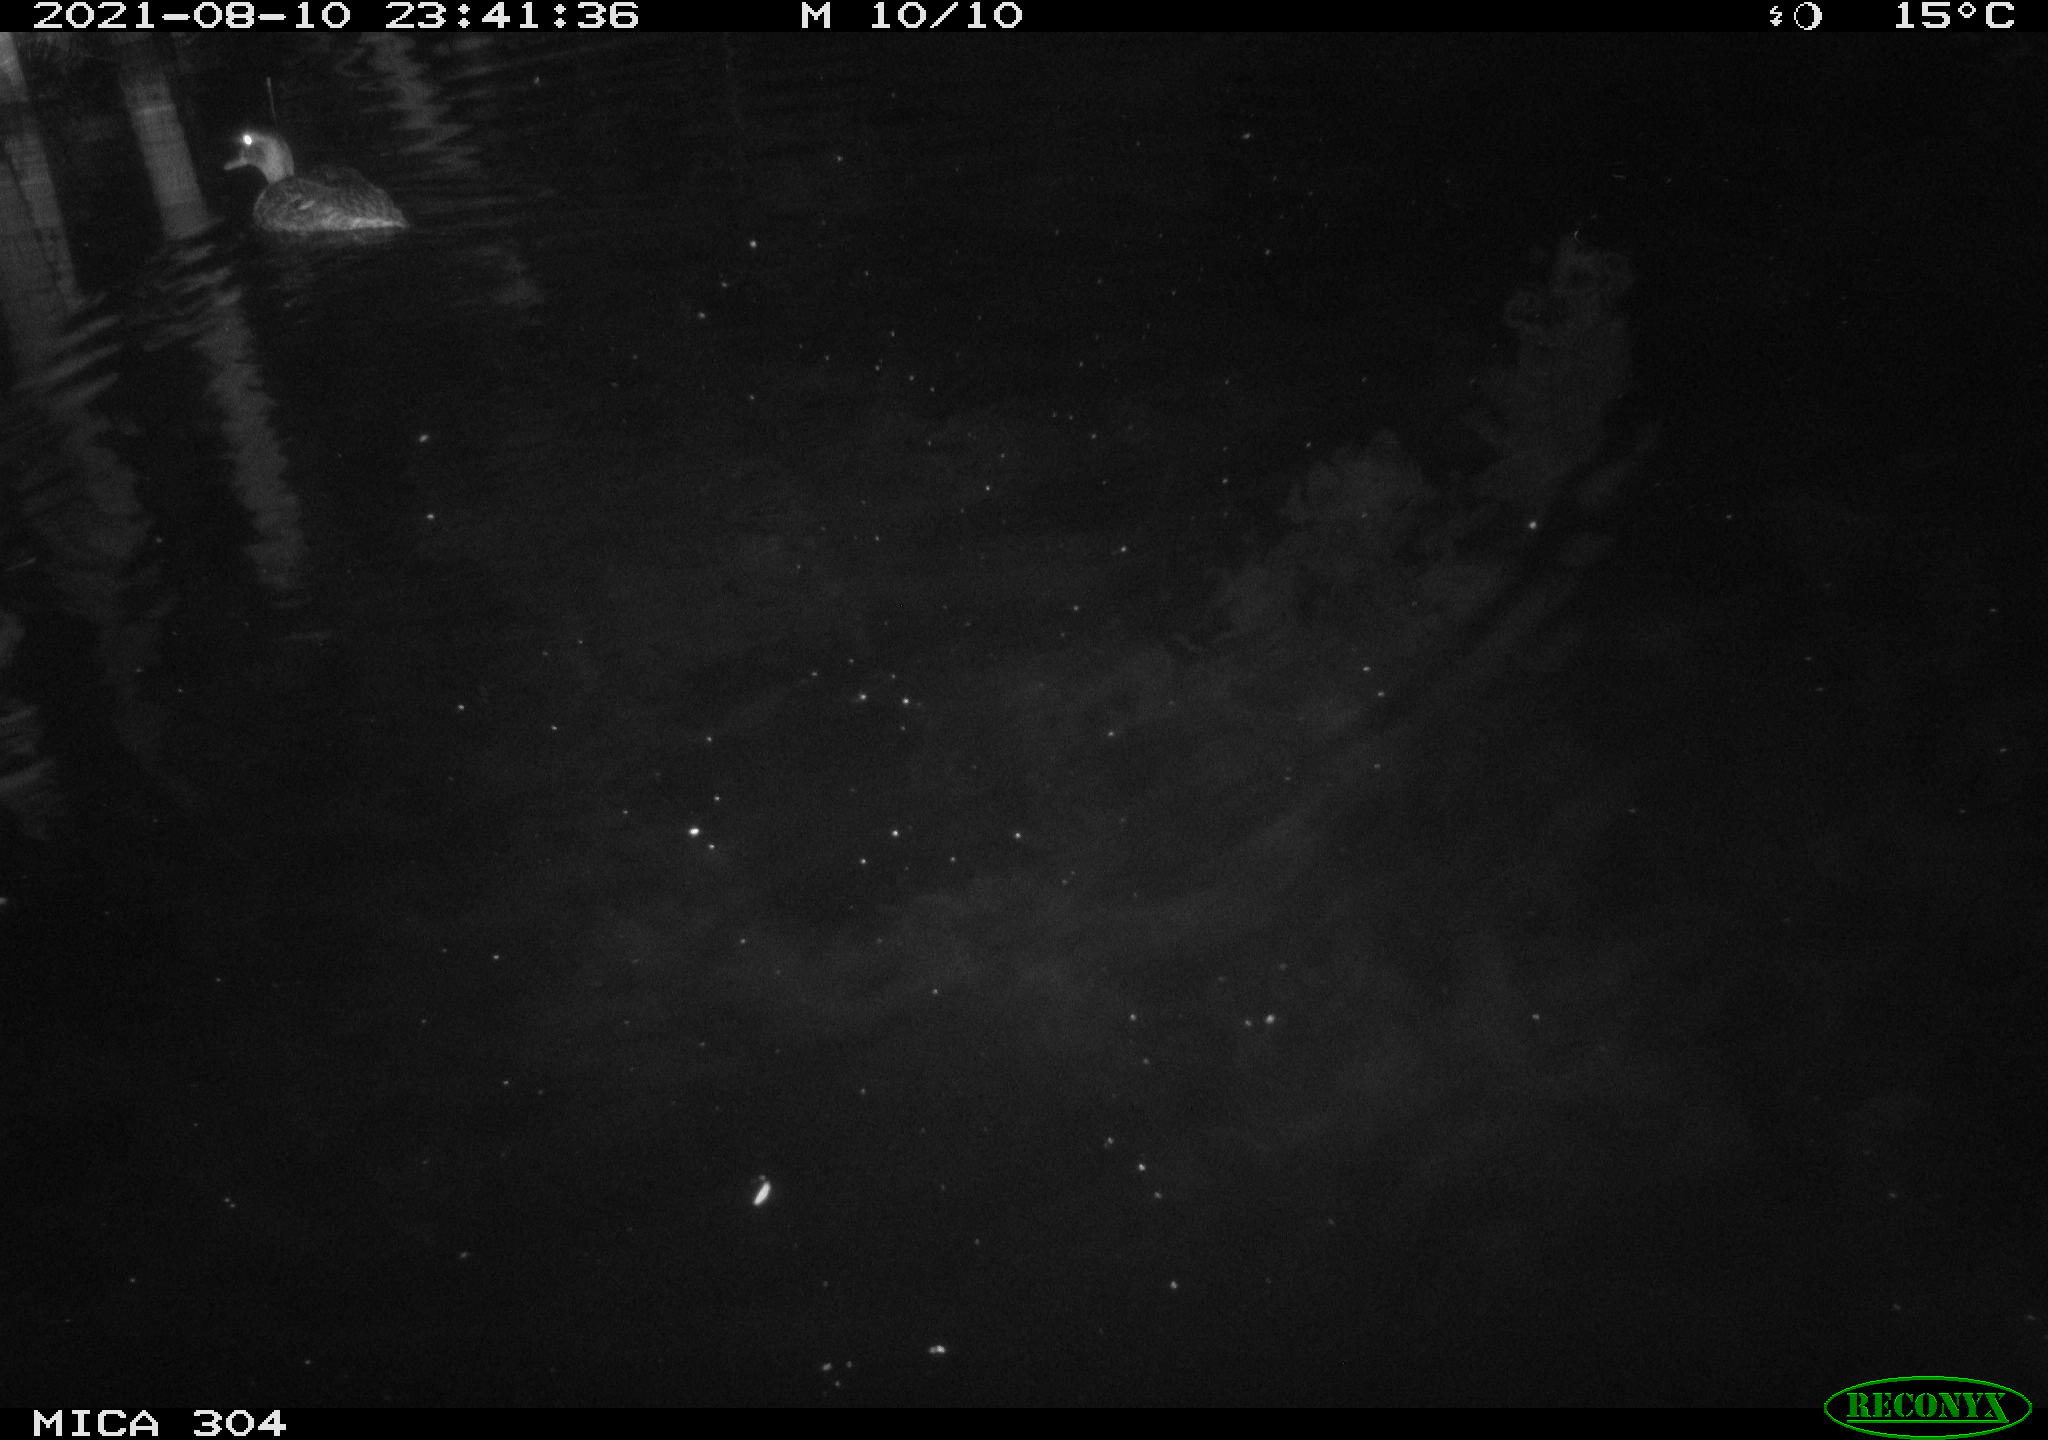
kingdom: Animalia
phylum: Chordata
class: Aves
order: Anseriformes
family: Anatidae
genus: Mareca
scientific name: Mareca strepera
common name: Gadwall
